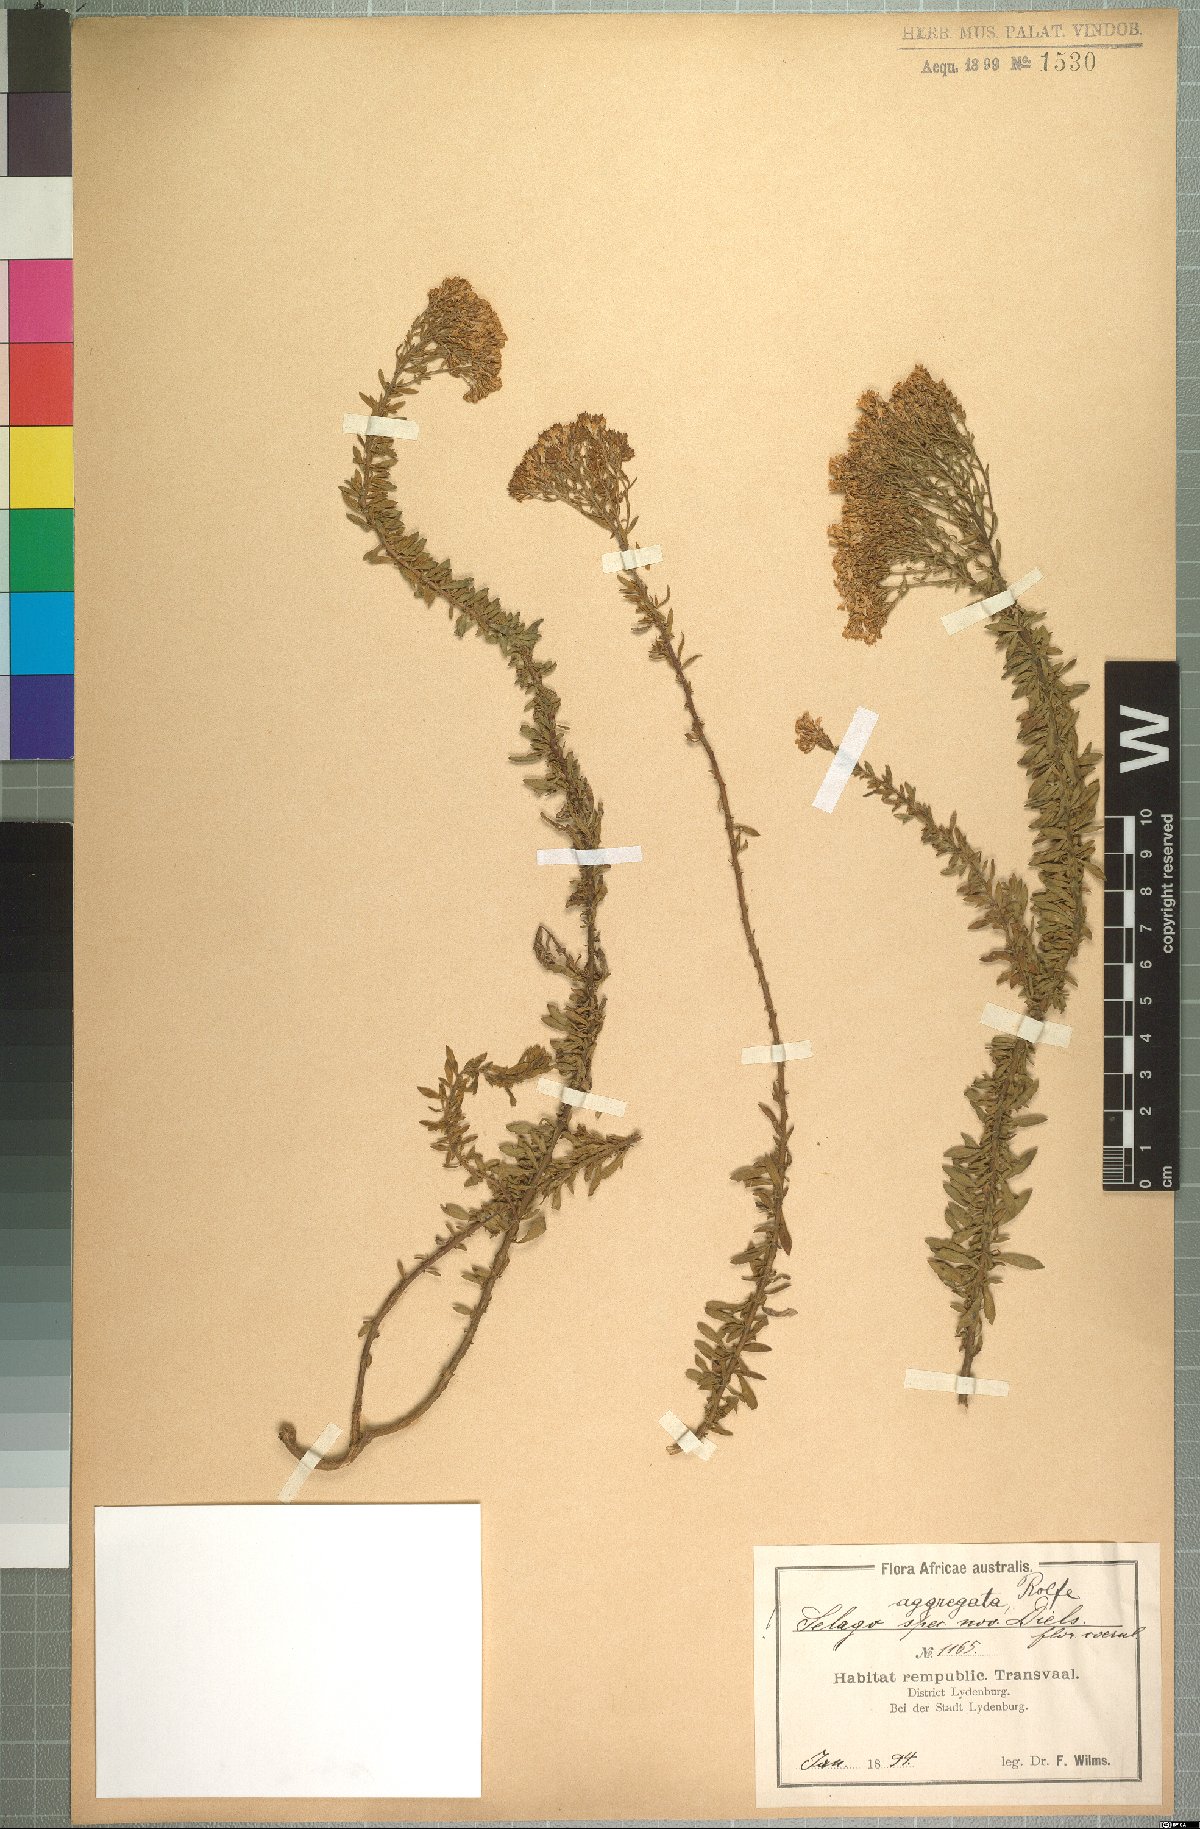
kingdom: Plantae
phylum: Tracheophyta
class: Magnoliopsida
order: Lamiales
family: Scrophulariaceae
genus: Tetraselago
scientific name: Tetraselago wilmsii
